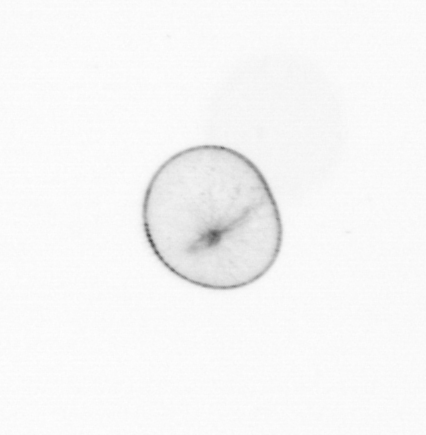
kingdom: Chromista
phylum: Myzozoa
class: Dinophyceae
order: Noctilucales
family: Noctilucaceae
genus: Noctiluca
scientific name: Noctiluca scintillans
